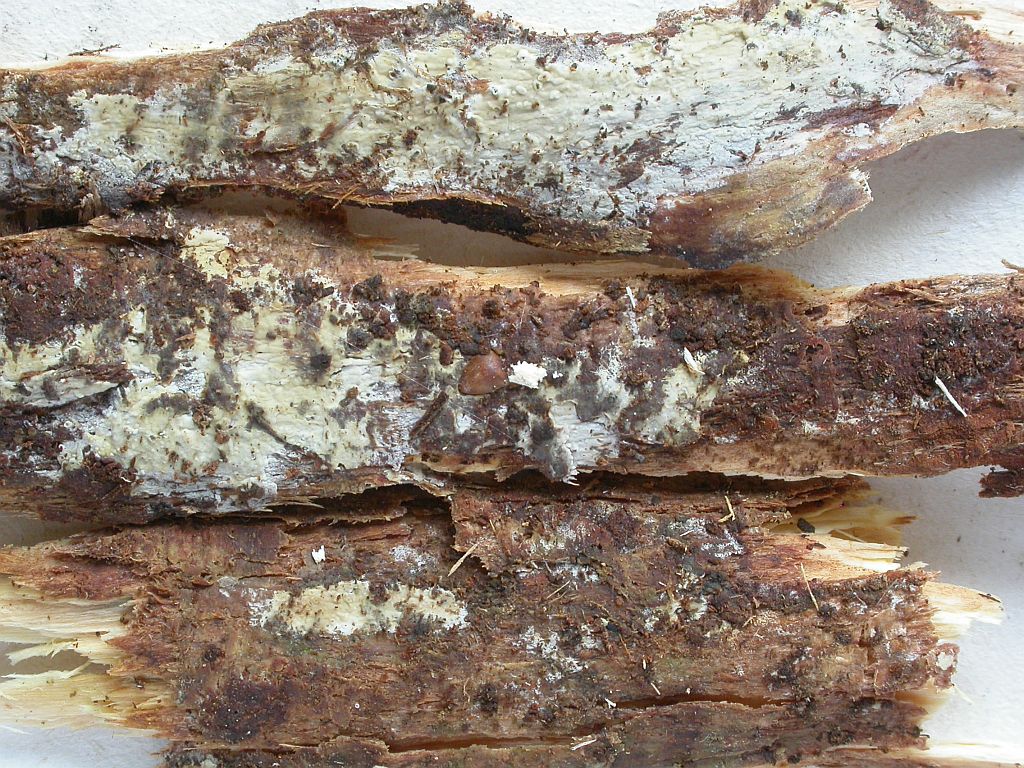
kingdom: Fungi
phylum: Basidiomycota
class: Agaricomycetes
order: Amylocorticiales
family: Amylocorticiaceae
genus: Ceraceomyces
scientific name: Ceraceomyces microsporus
